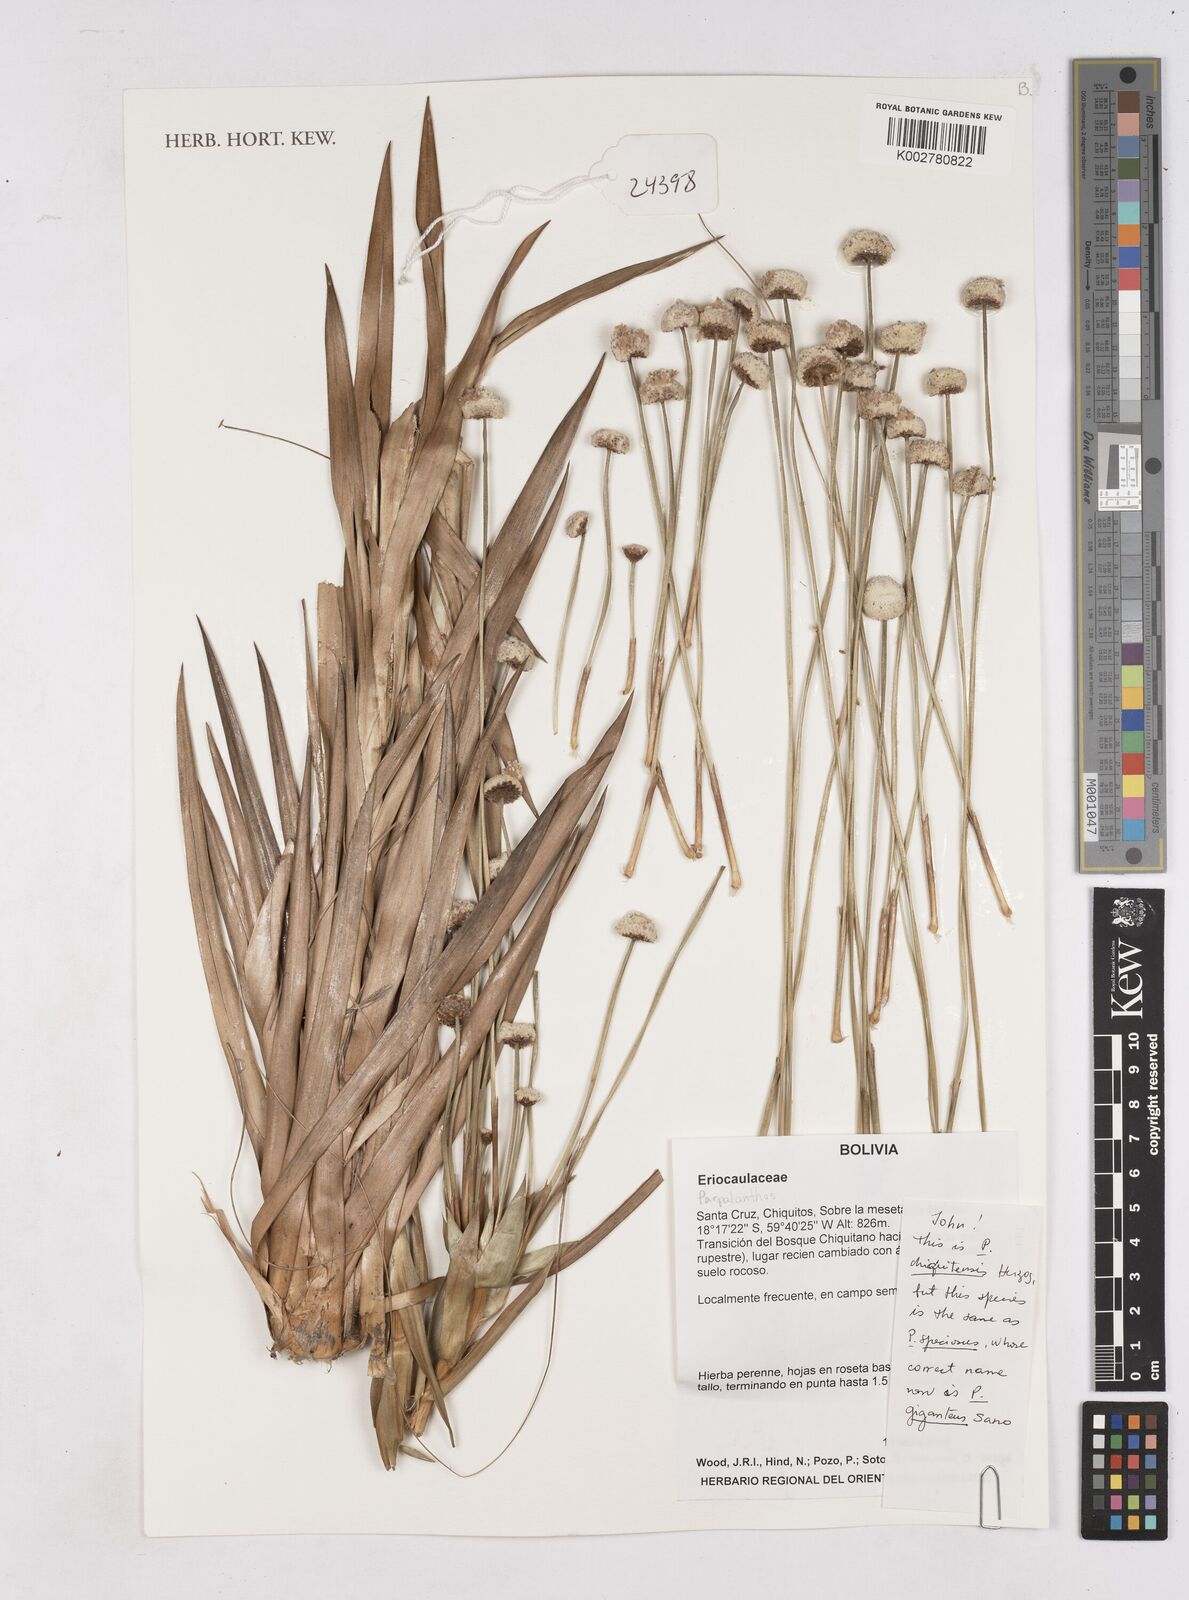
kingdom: Plantae
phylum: Tracheophyta
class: Liliopsida
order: Poales
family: Eriocaulaceae
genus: Paepalanthus
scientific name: Paepalanthus chiquitensis
